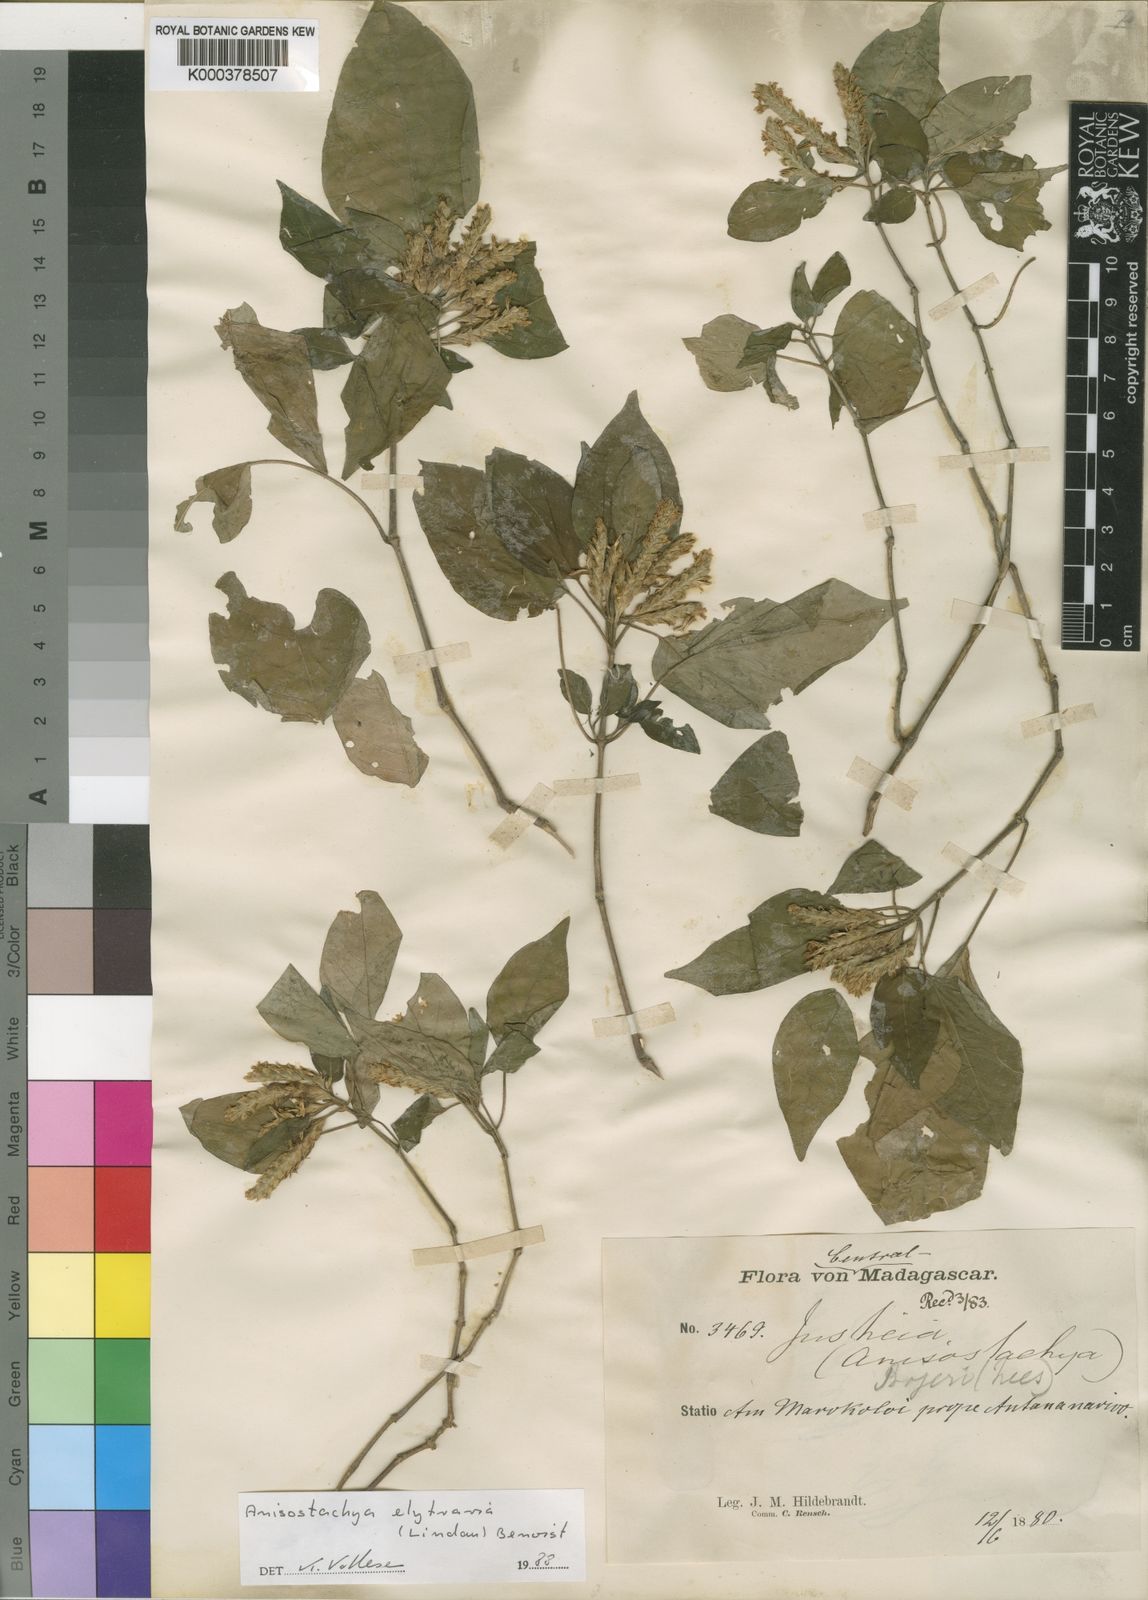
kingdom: Plantae
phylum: Tracheophyta
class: Magnoliopsida
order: Lamiales
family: Acanthaceae
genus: Justicia
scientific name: Justicia
